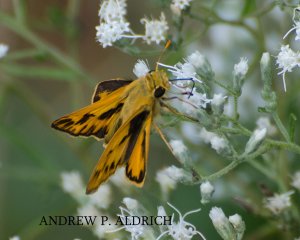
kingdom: Animalia
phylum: Arthropoda
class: Insecta
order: Lepidoptera
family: Hesperiidae
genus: Hylephila
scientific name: Hylephila phyleus
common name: Fiery Skipper
